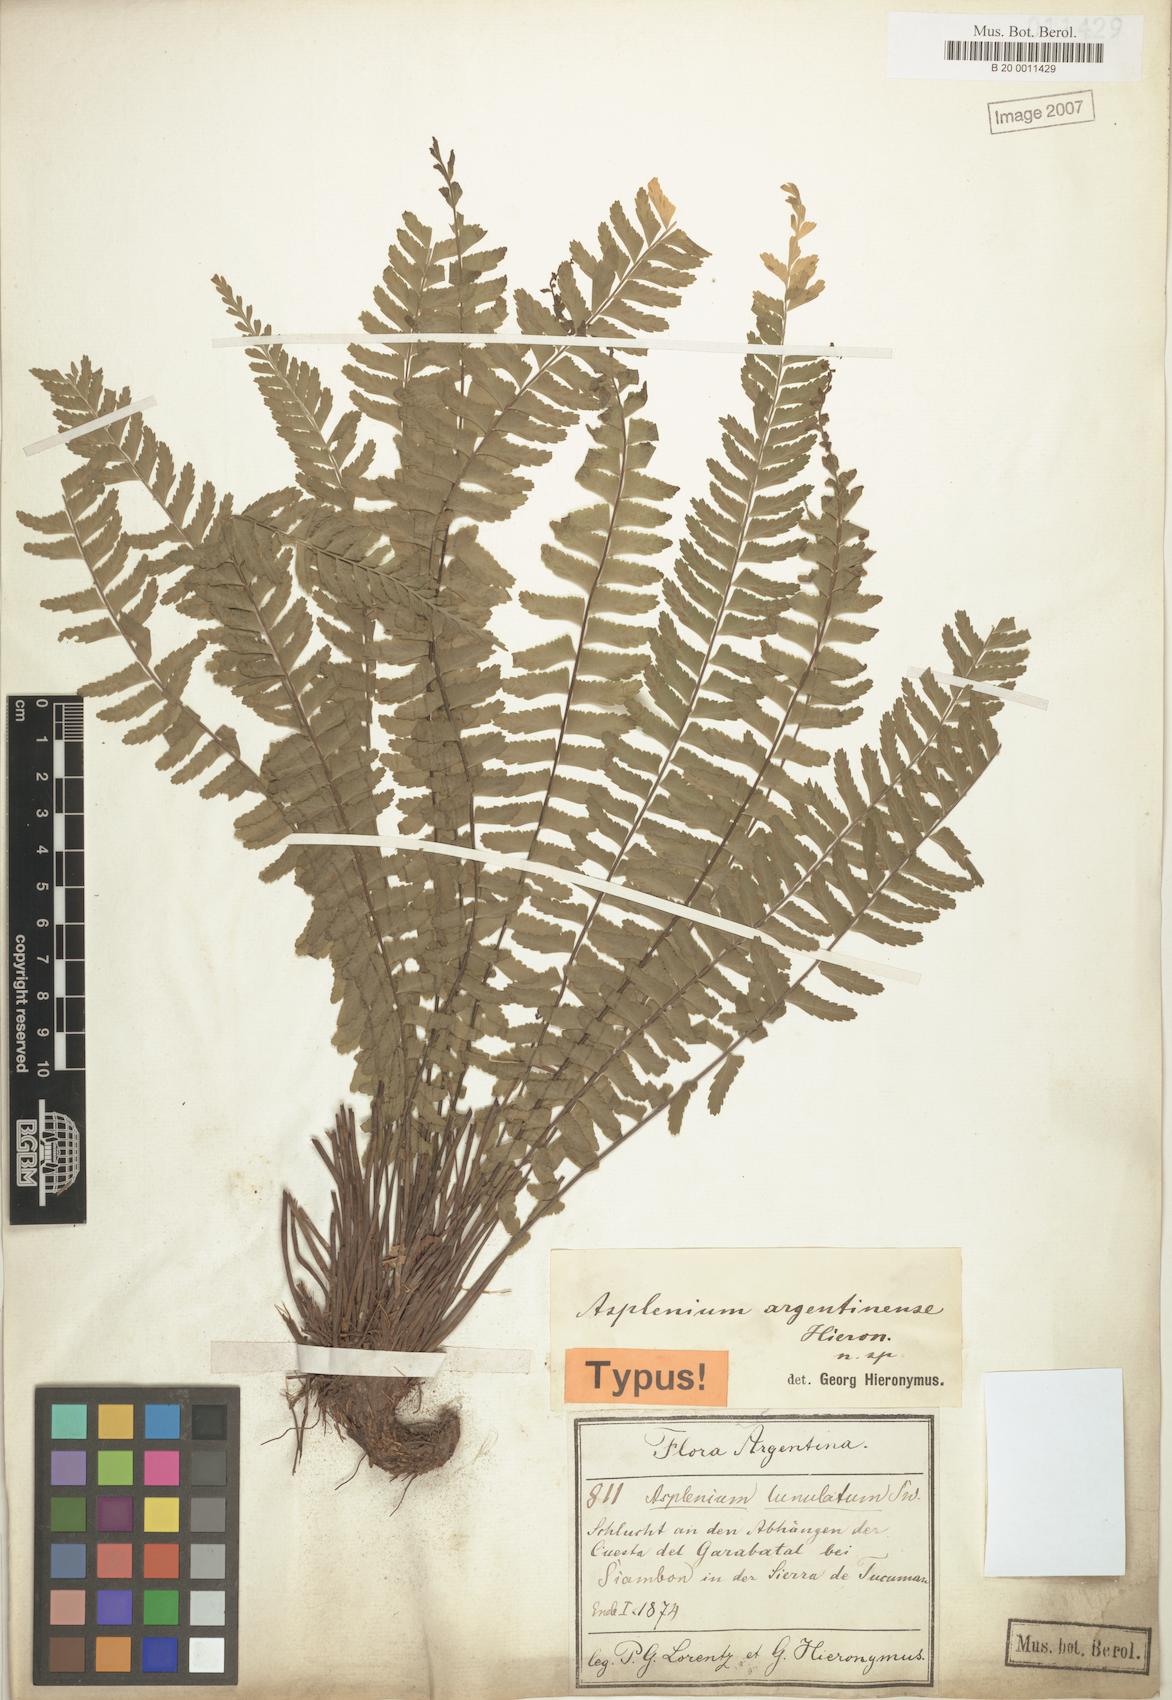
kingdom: Plantae
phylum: Tracheophyta
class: Polypodiopsida
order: Polypodiales
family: Aspleniaceae
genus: Asplenium
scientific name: Asplenium argentinum
